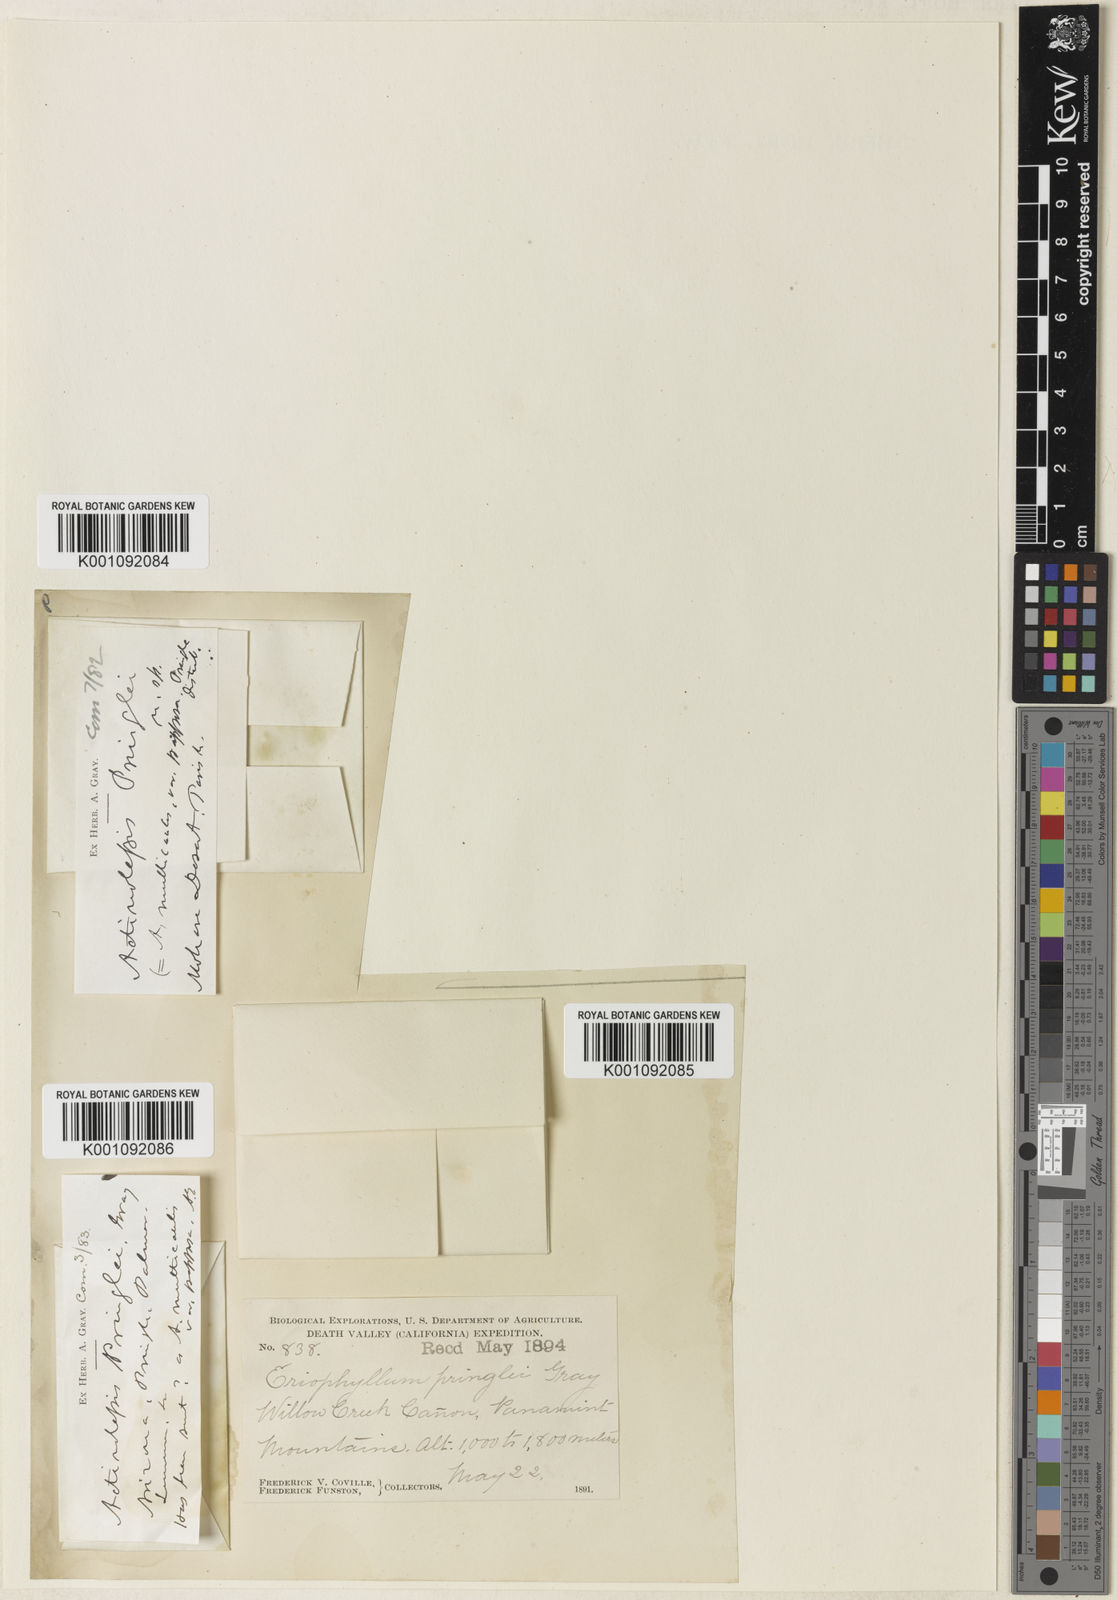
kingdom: Plantae
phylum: Tracheophyta
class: Magnoliopsida
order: Asterales
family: Asteraceae
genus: Eriophyllum
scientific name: Eriophyllum pringlei
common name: Pringle's woolly-sunflower
